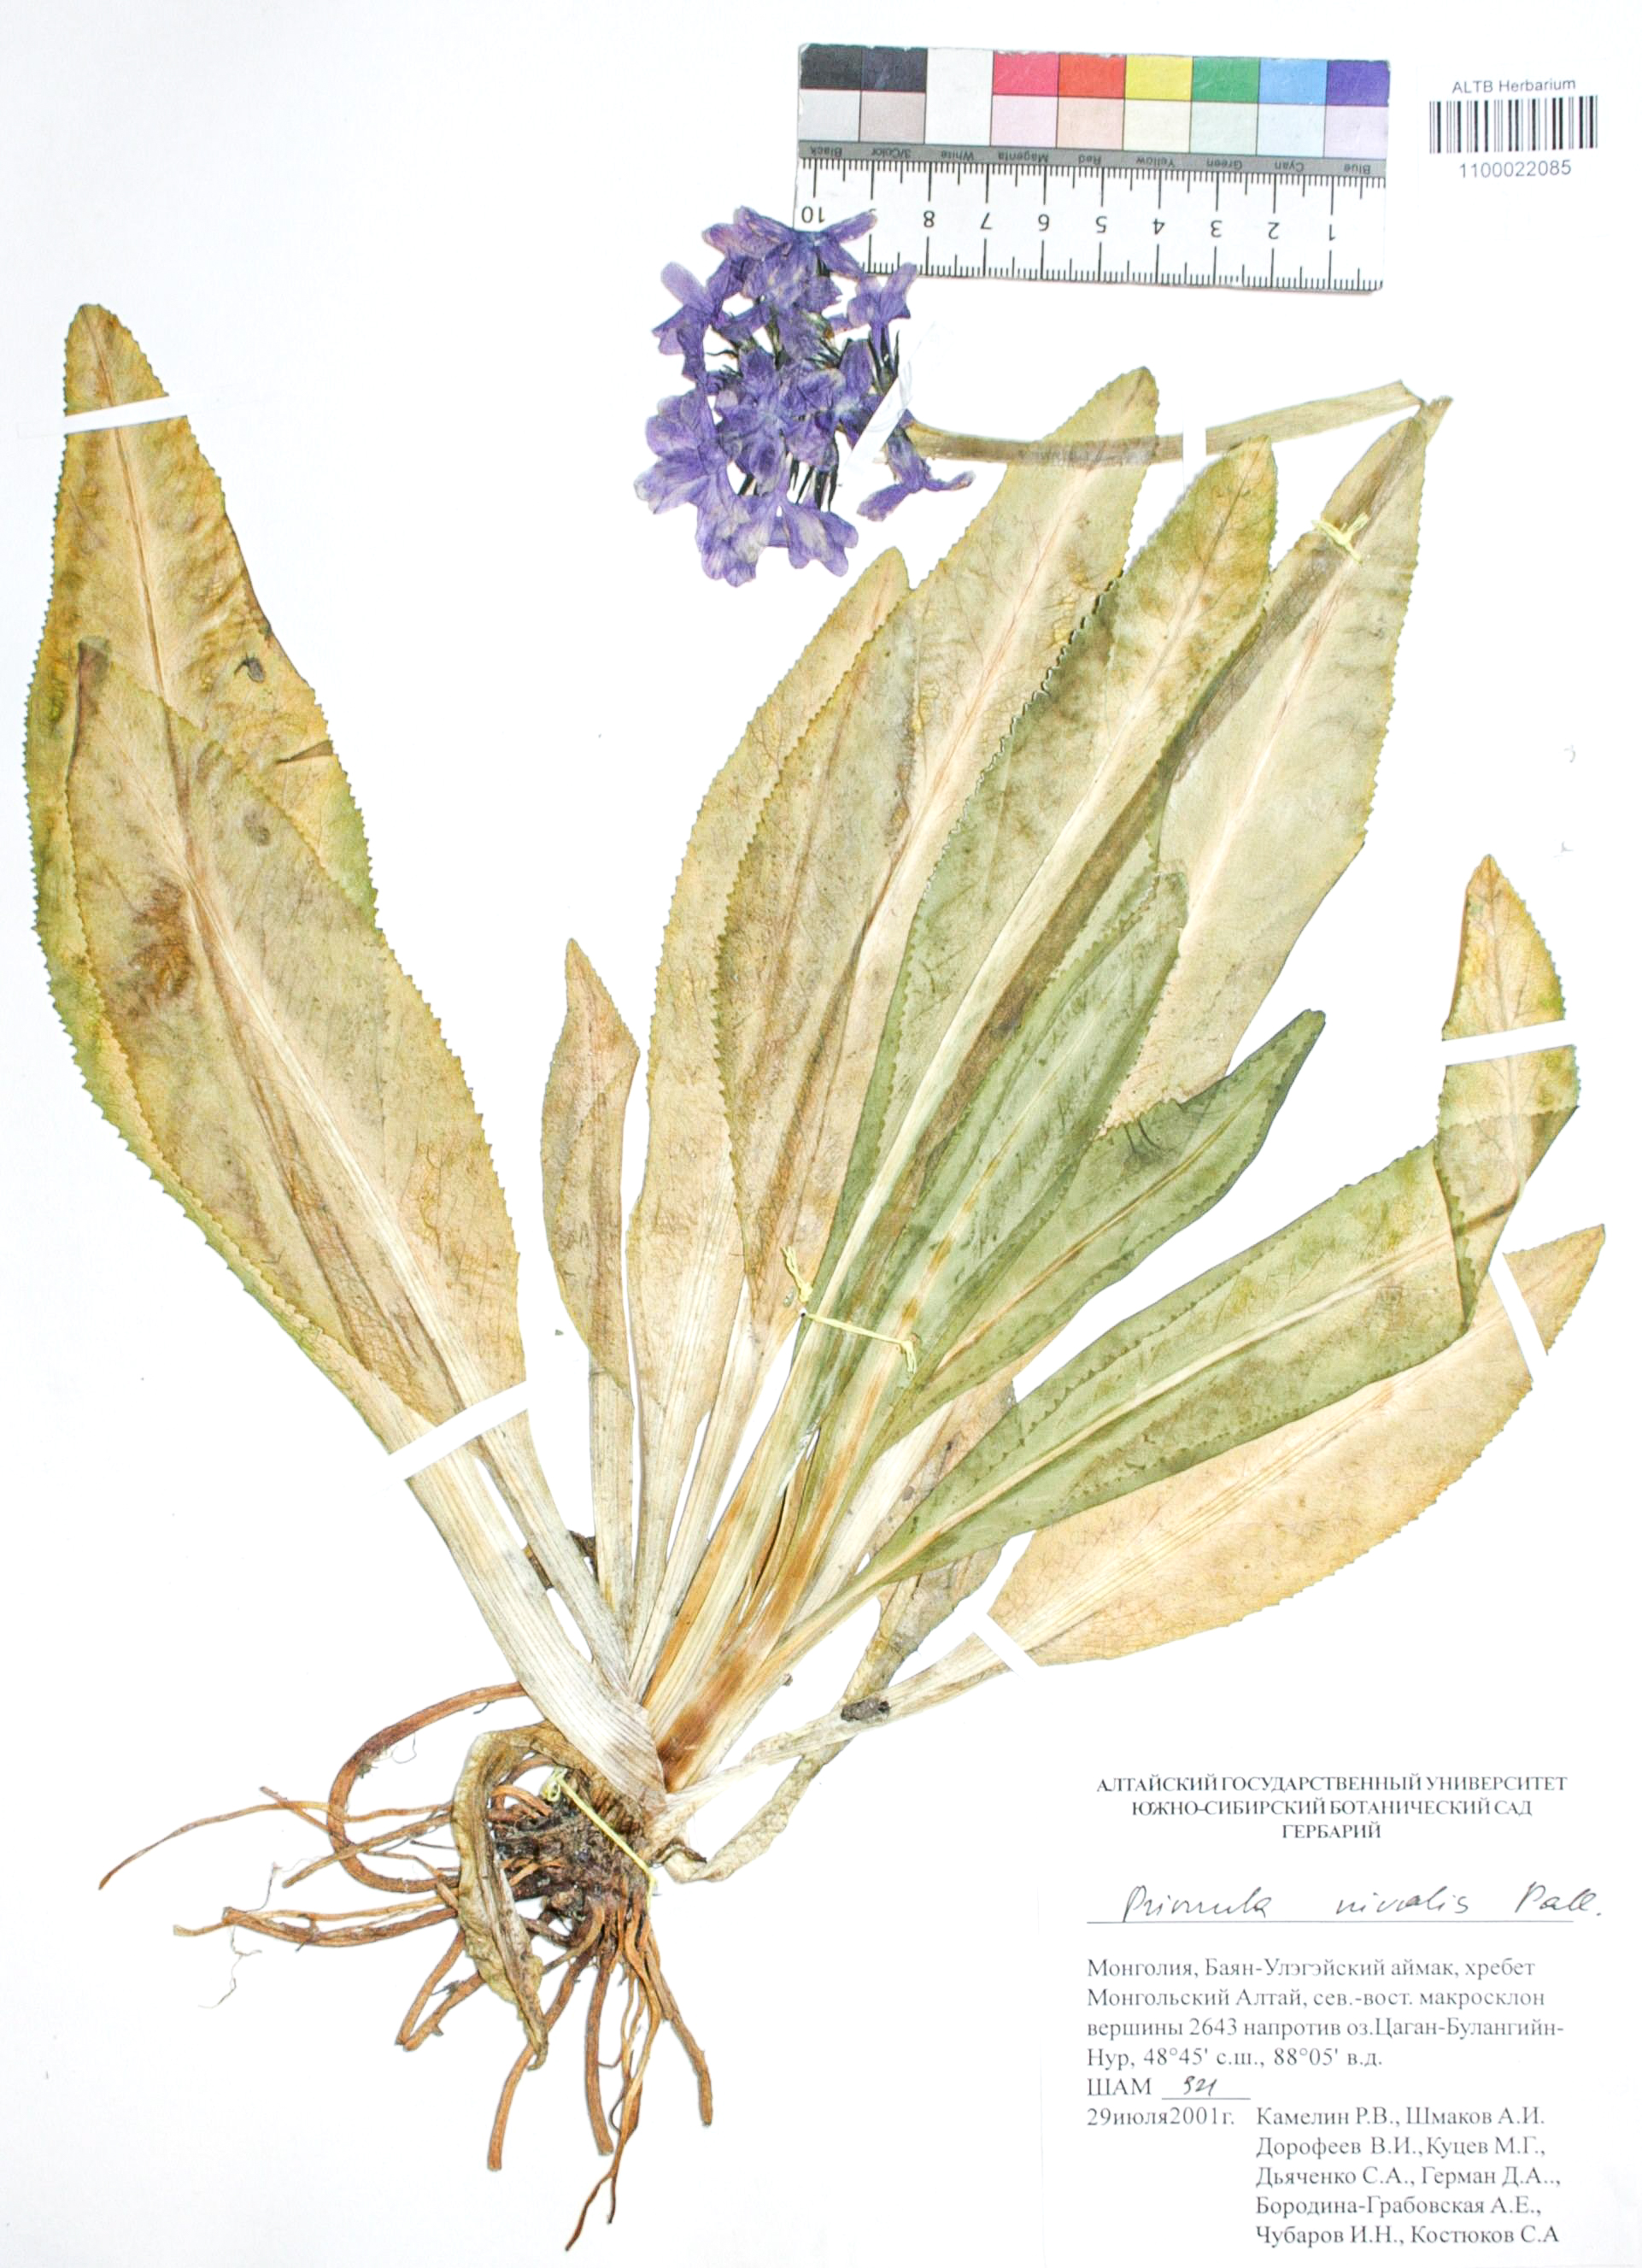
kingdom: Plantae
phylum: Tracheophyta
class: Magnoliopsida
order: Ericales
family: Primulaceae
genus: Primula
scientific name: Primula nivalis
